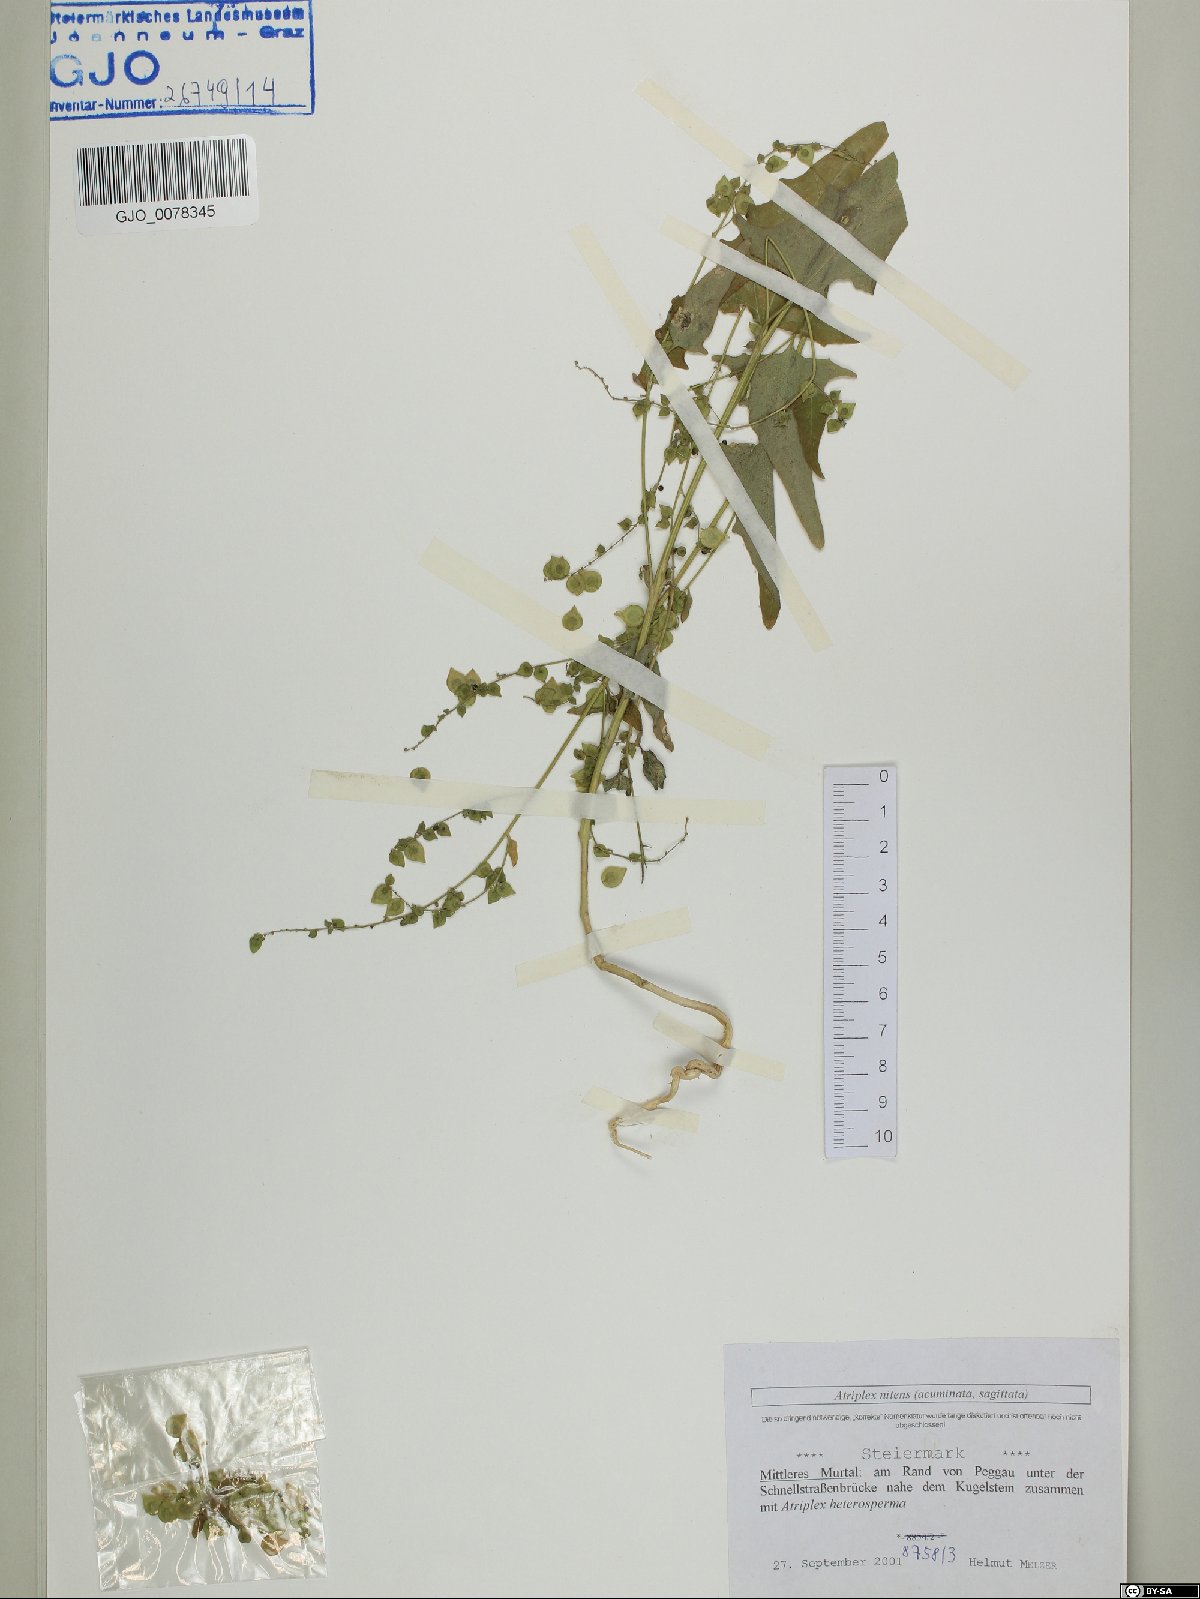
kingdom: Plantae
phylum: Tracheophyta
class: Magnoliopsida
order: Caryophyllales
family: Amaranthaceae
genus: Atriplex
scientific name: Atriplex sagittata
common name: Purple orache
